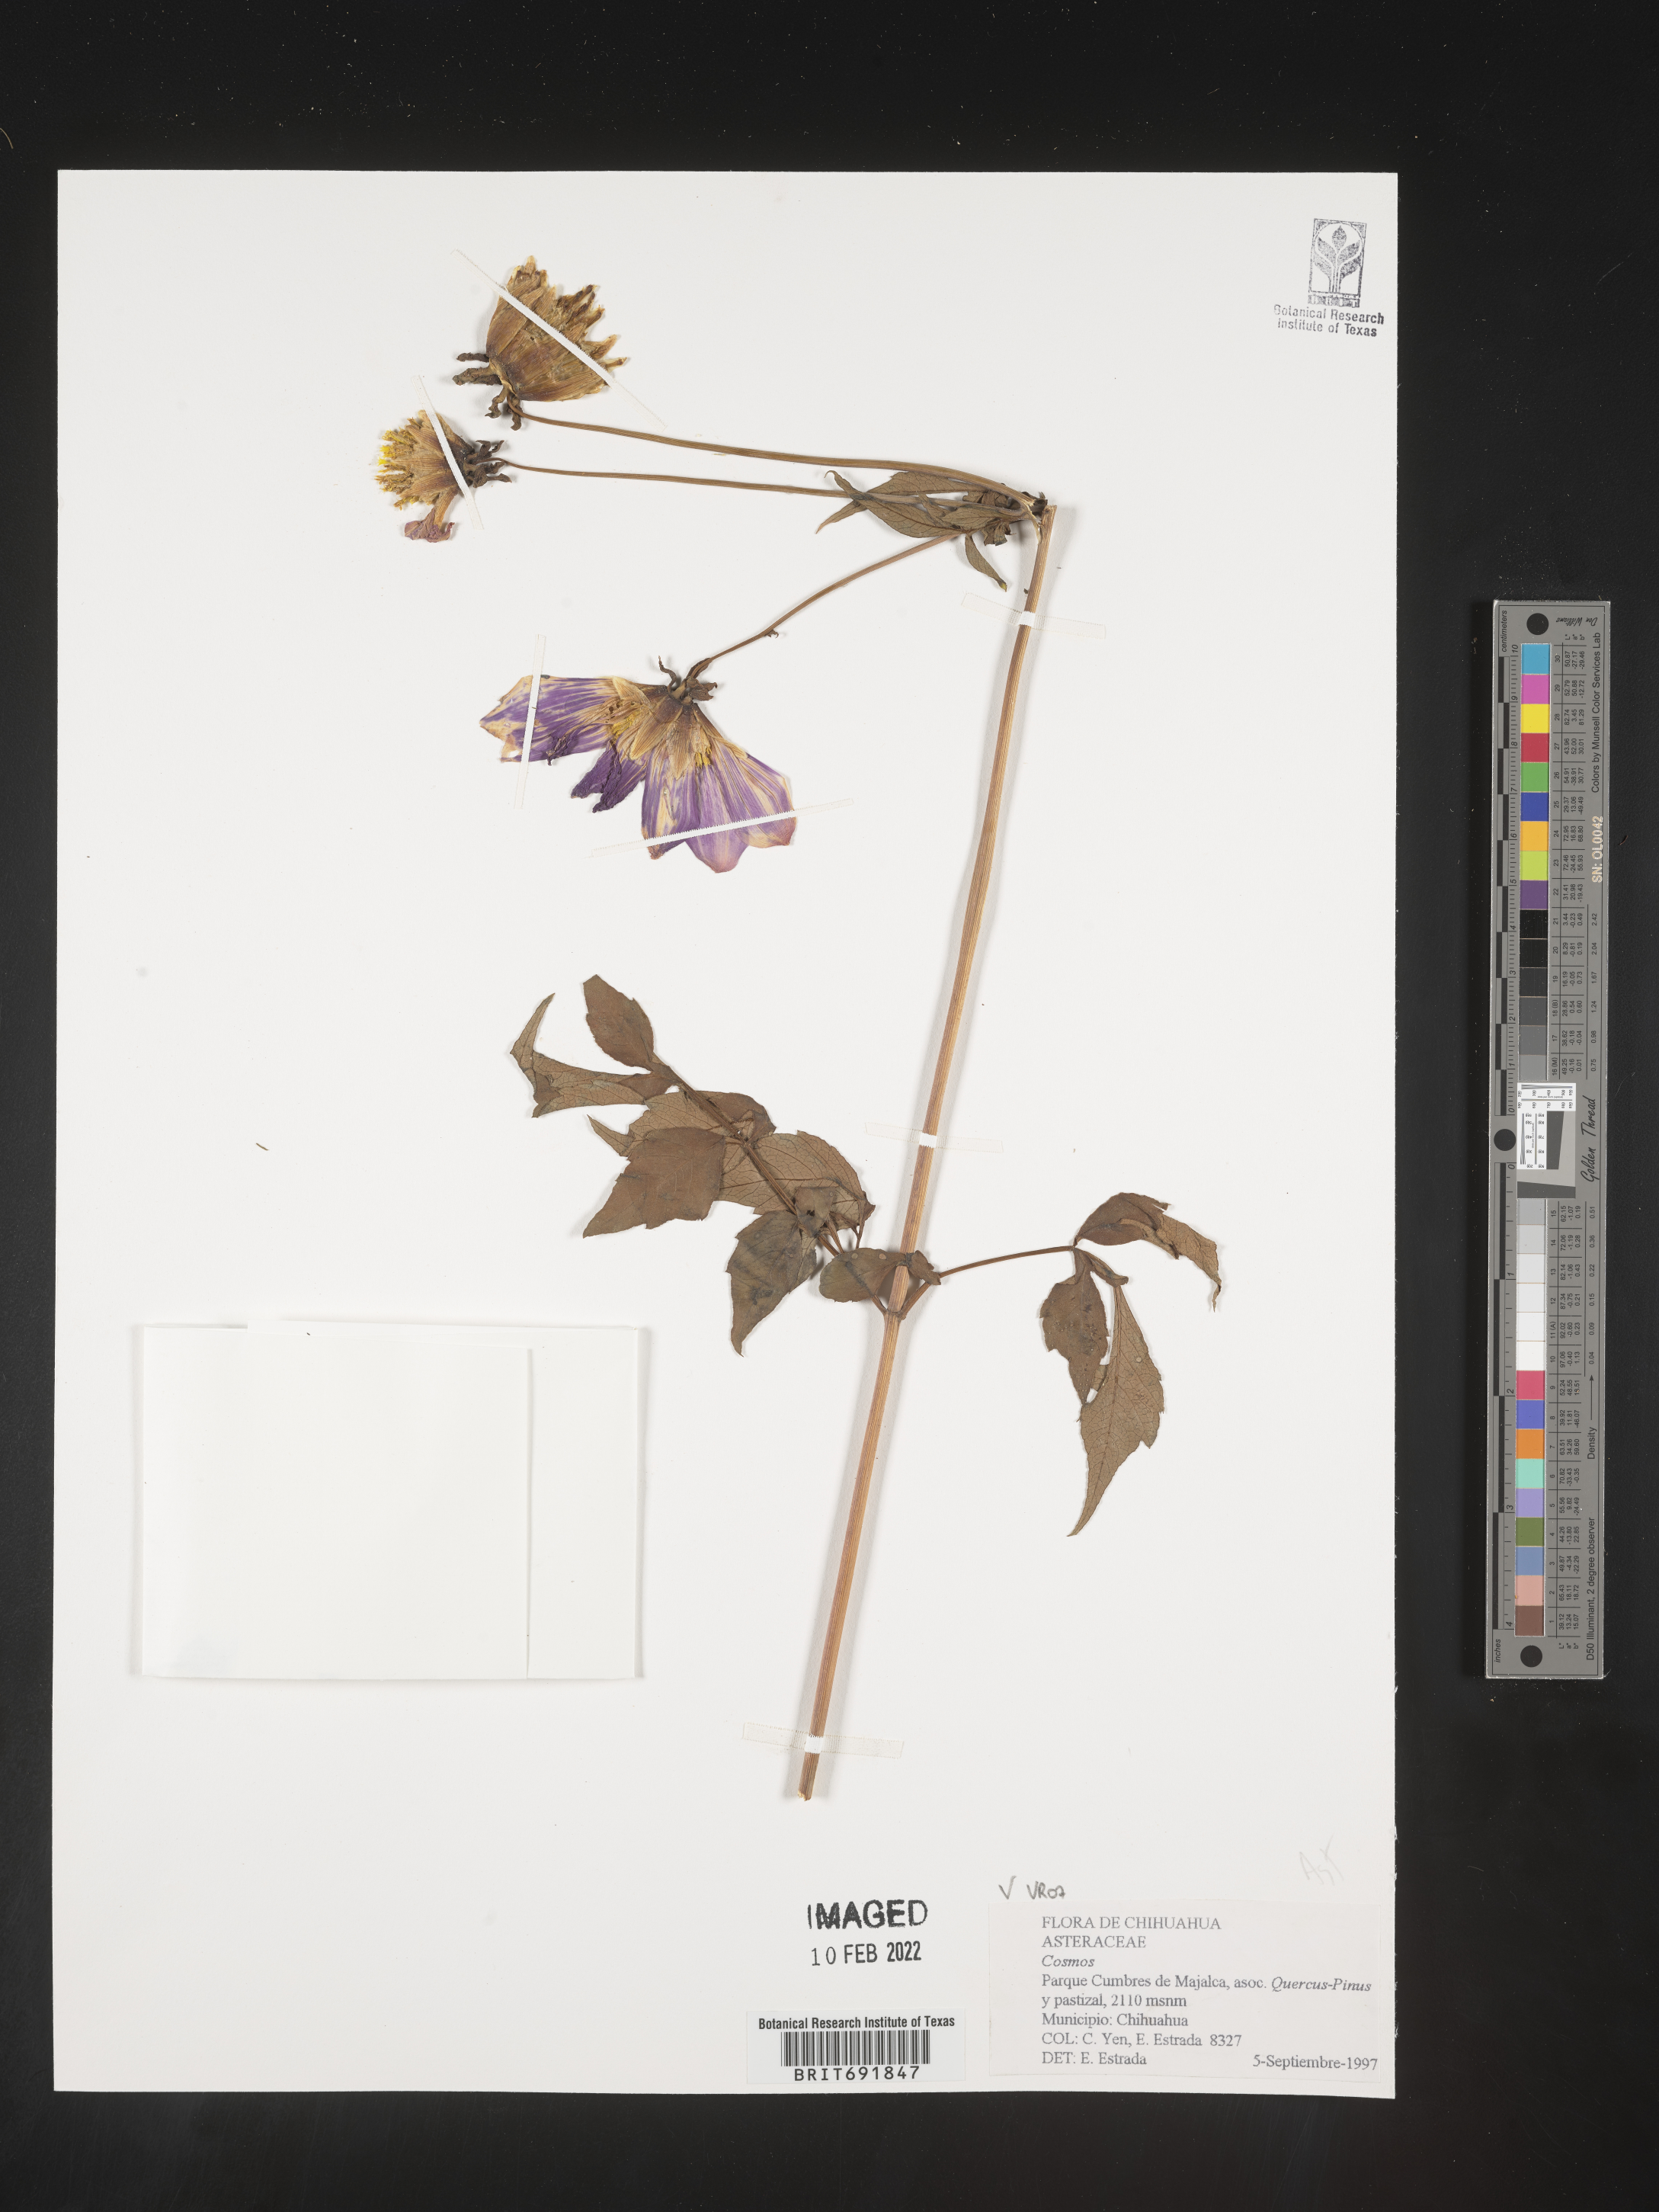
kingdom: Plantae
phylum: Tracheophyta
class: Magnoliopsida
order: Asterales
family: Asteraceae
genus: Cosmos
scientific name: Cosmos
